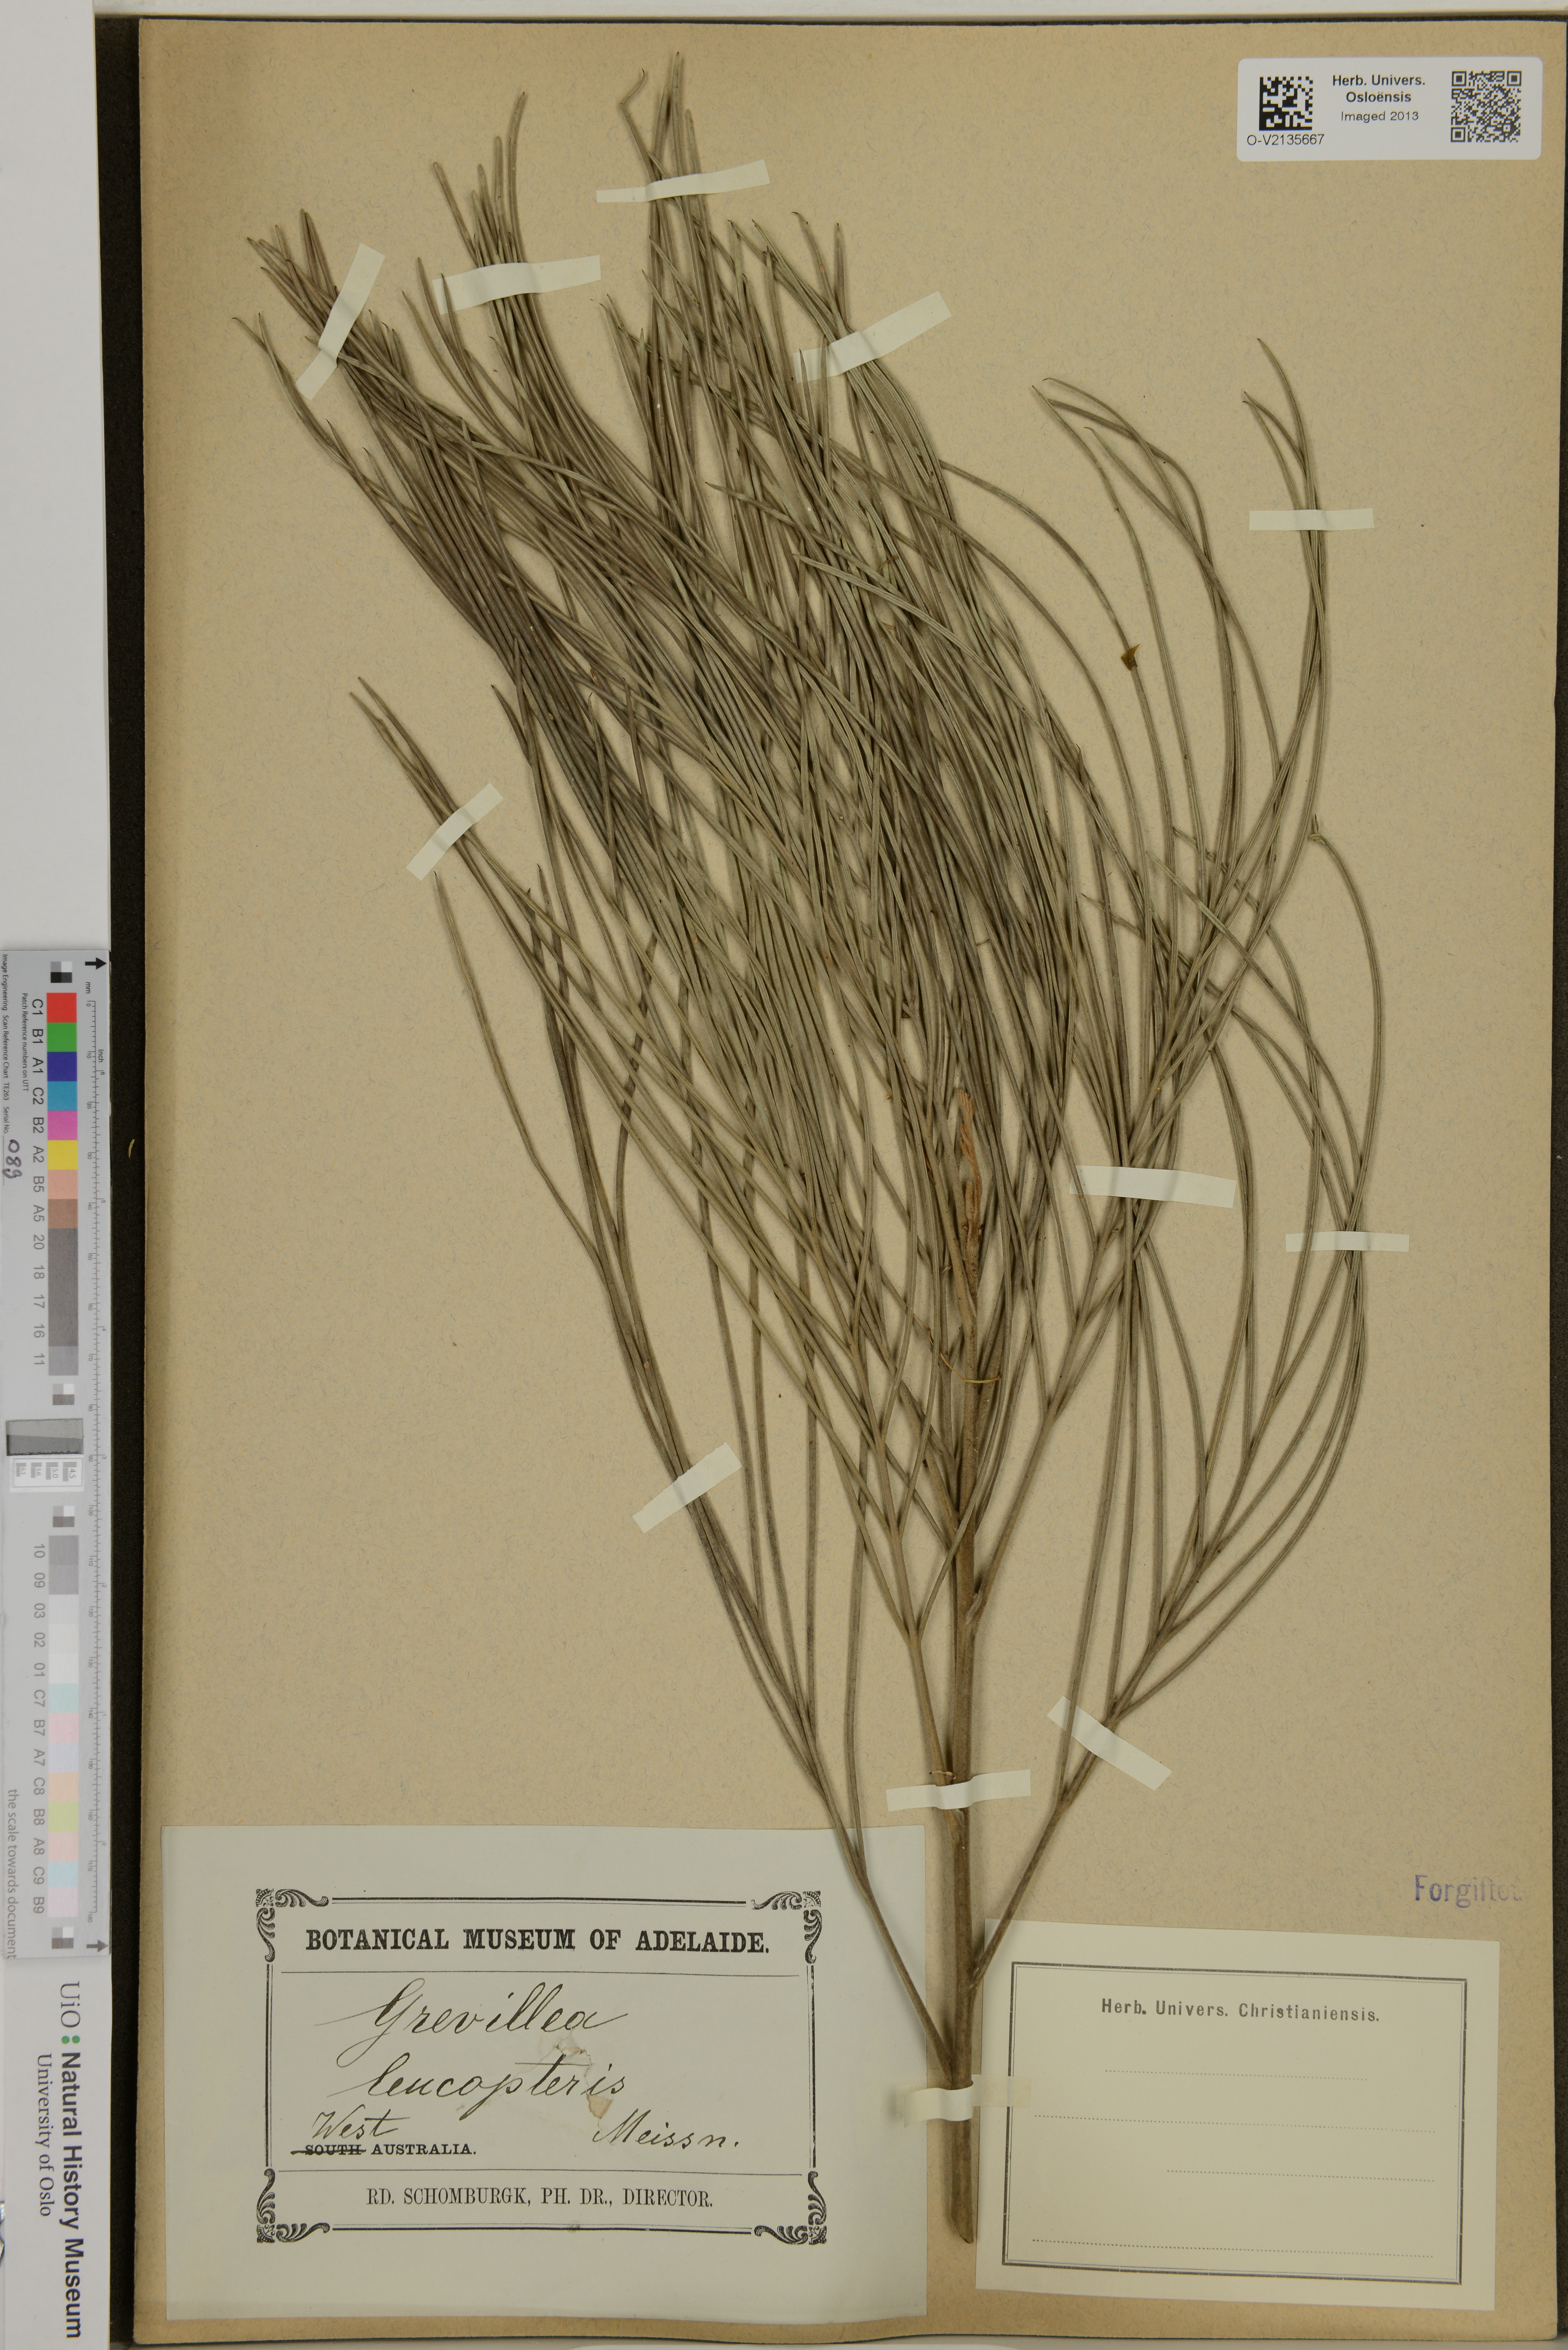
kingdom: Plantae
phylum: Tracheophyta
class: Magnoliopsida
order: Proteales
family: Proteaceae
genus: Grevillea
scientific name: Grevillea leucopteris
